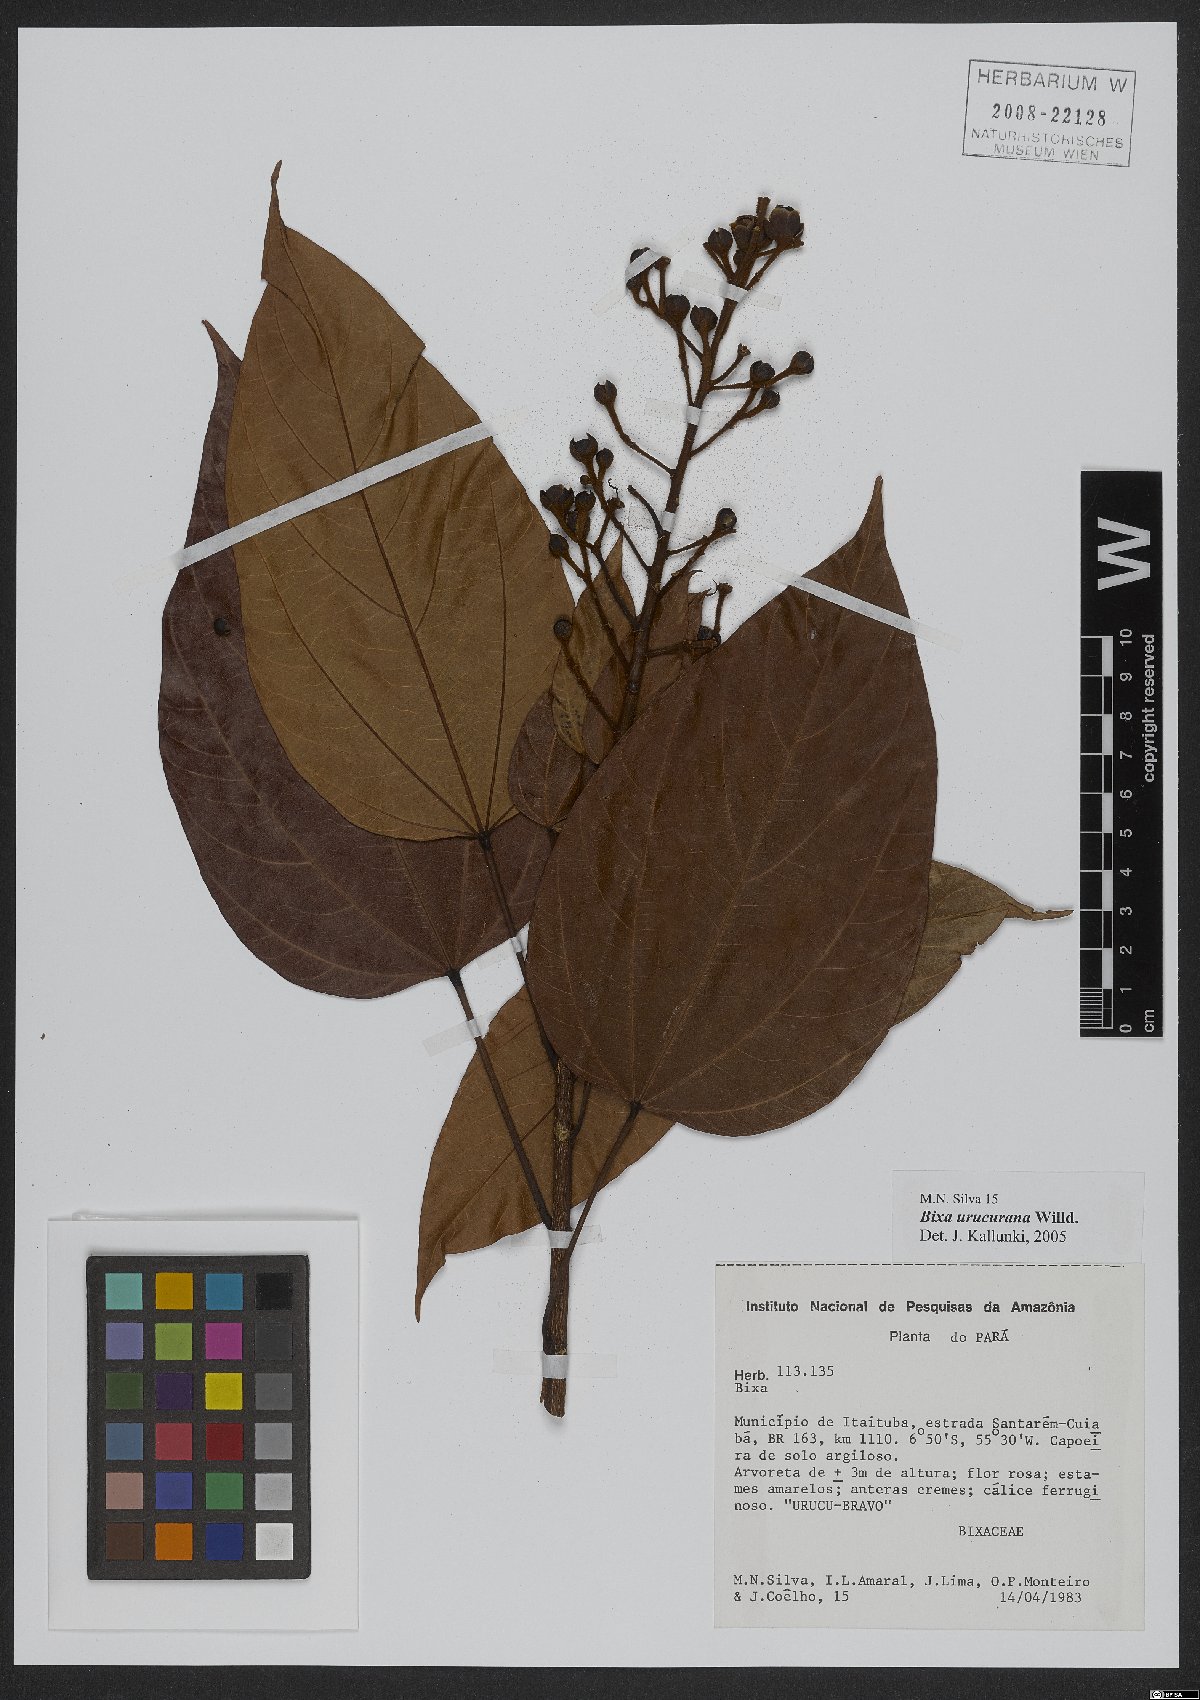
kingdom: Plantae
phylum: Tracheophyta
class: Magnoliopsida
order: Malvales
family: Bixaceae
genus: Bixa
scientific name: Bixa urucurana
